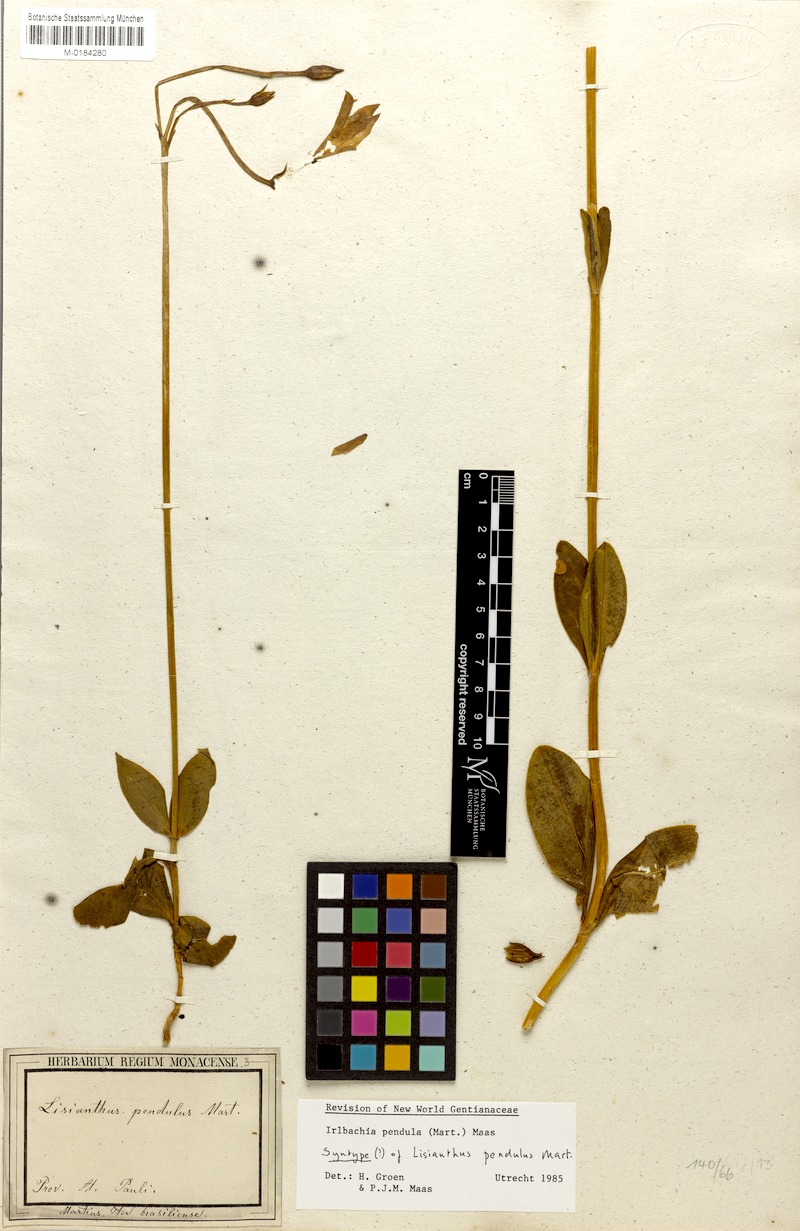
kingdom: Plantae
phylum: Tracheophyta
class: Magnoliopsida
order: Gentianales
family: Gentianaceae
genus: Calolisianthus
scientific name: Calolisianthus pendulus
